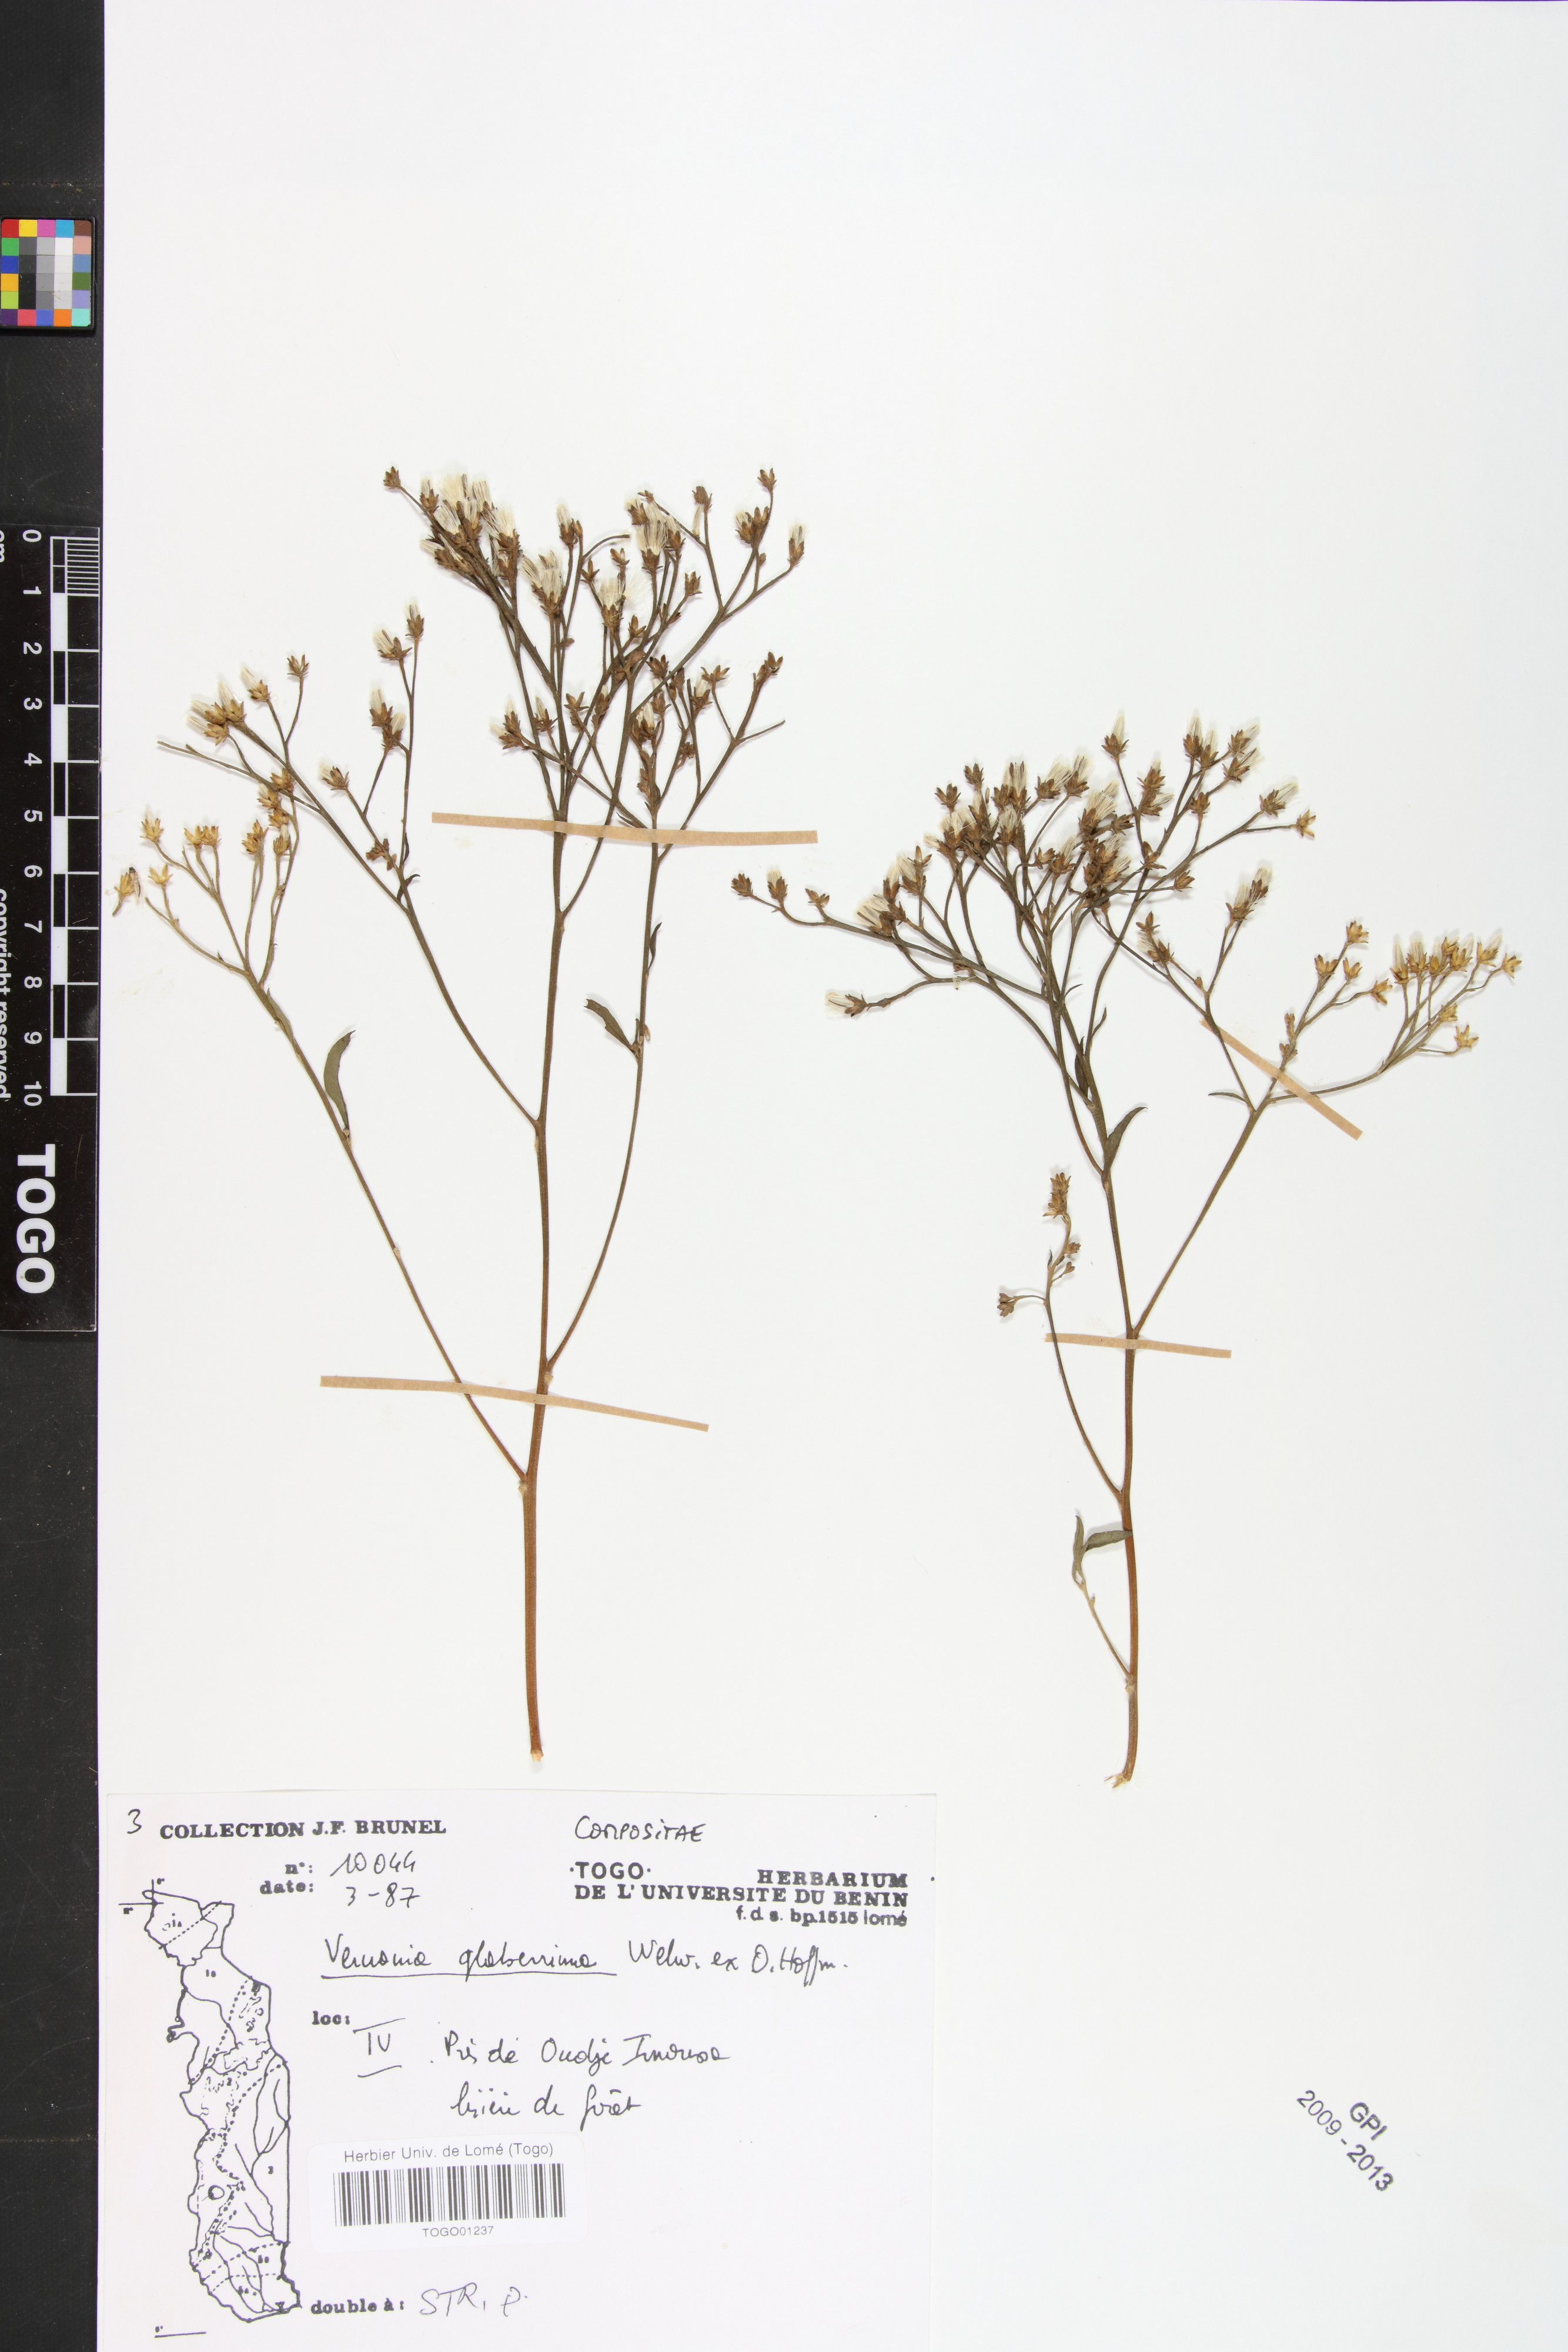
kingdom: Plantae
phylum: Tracheophyta
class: Magnoliopsida
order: Asterales
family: Asteraceae
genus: Gymnanthemum
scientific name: Gymnanthemum glaberrimum
